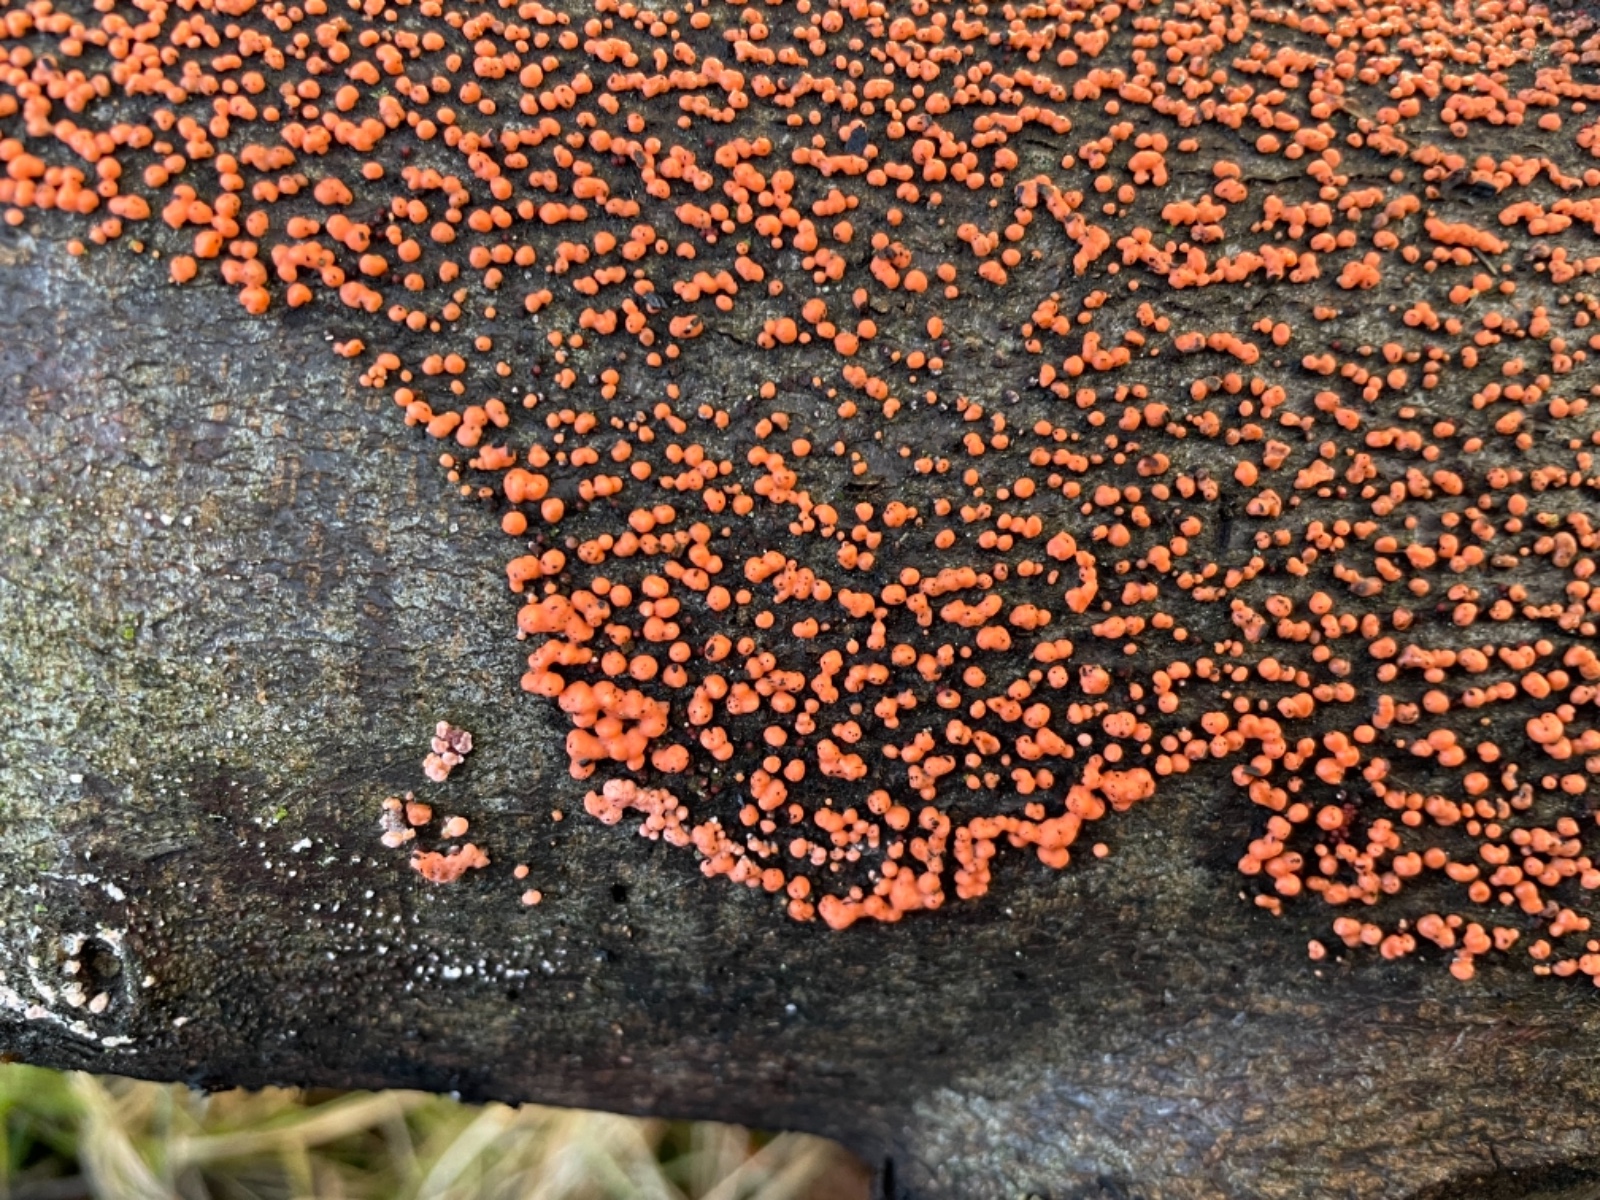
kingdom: Fungi
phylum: Ascomycota
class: Sordariomycetes
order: Hypocreales
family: Nectriaceae
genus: Nectria
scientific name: Nectria cinnabarina
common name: almindelig cinnobersvamp
